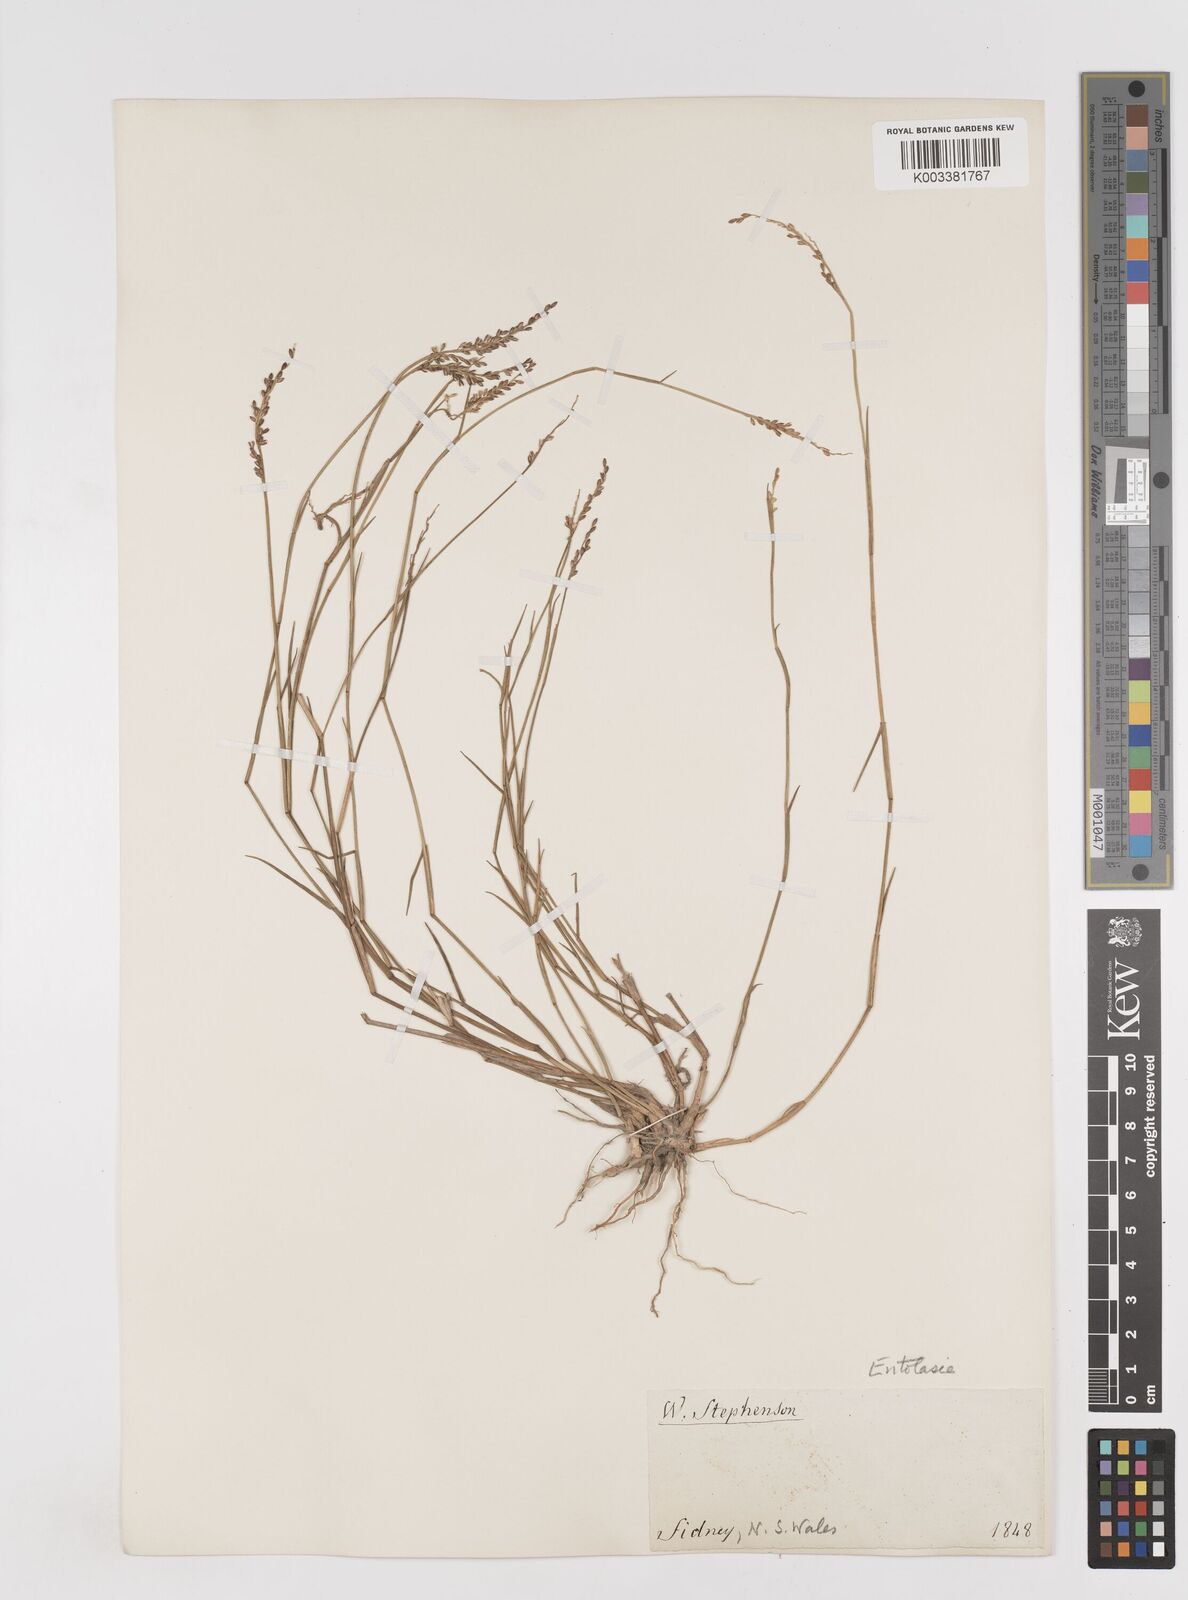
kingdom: Plantae
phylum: Tracheophyta
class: Liliopsida
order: Poales
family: Poaceae
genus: Entolasia
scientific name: Entolasia stricta
